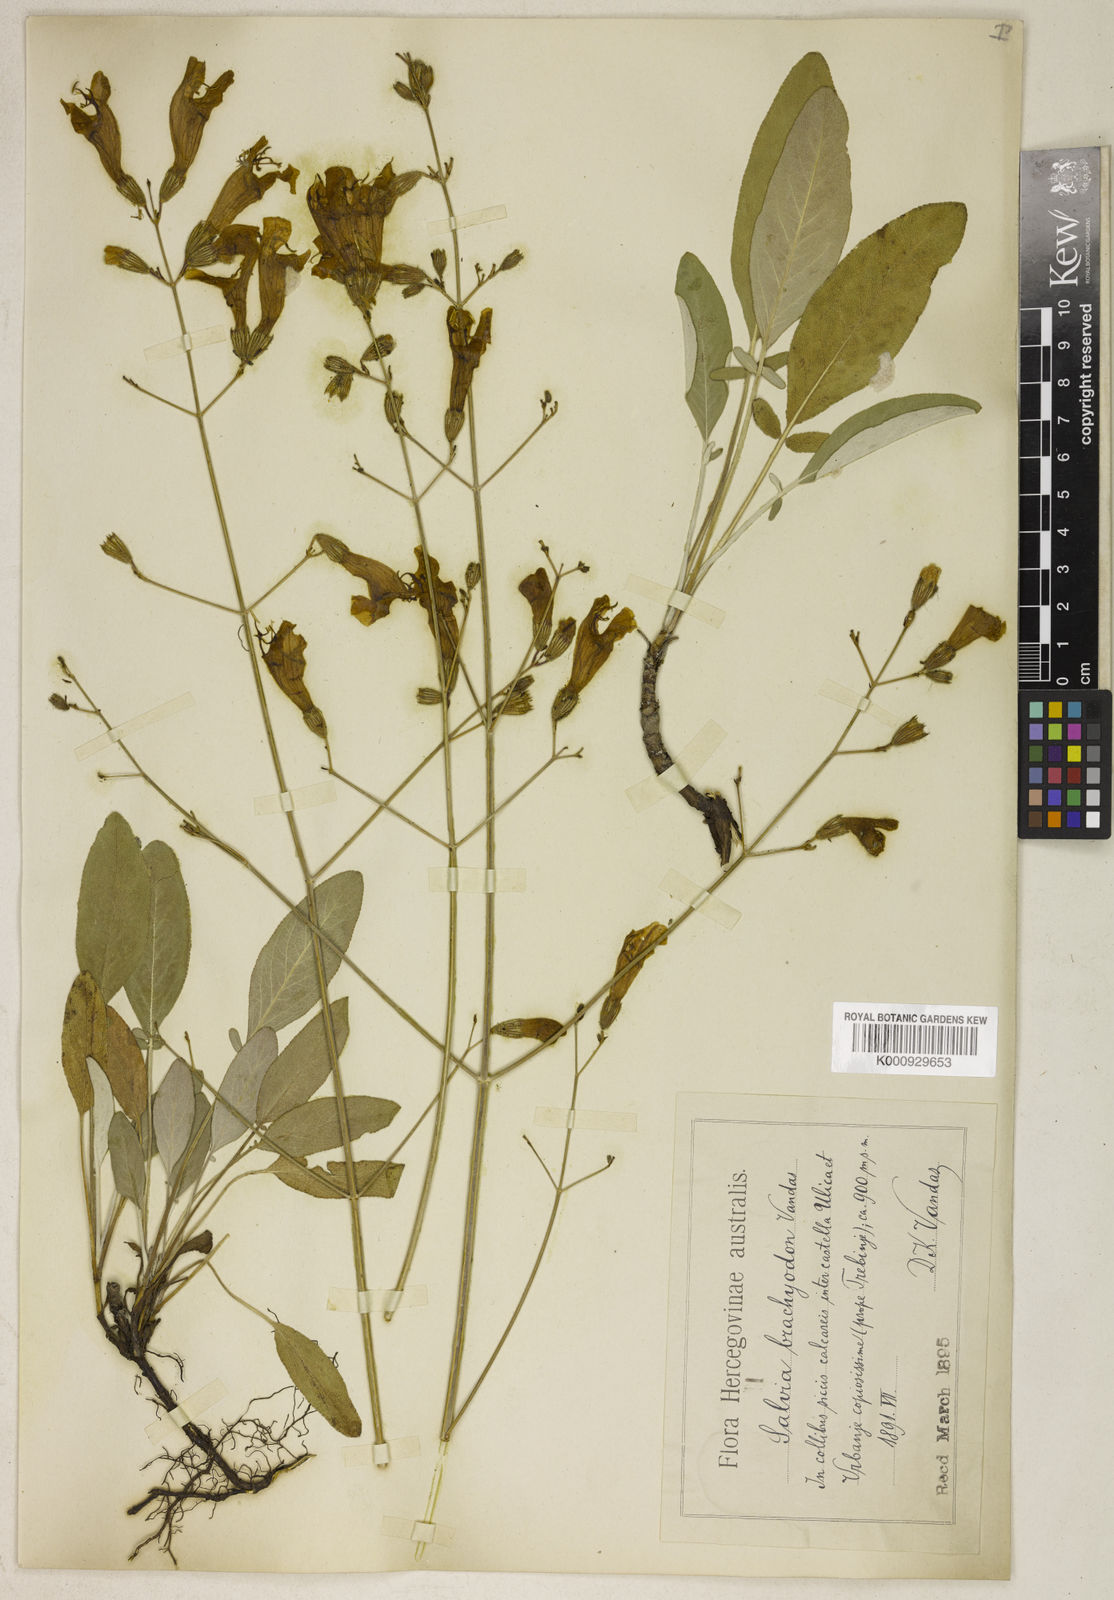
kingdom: Plantae
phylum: Tracheophyta
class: Magnoliopsida
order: Lamiales
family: Lamiaceae
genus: Salvia
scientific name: Salvia brachyodon
